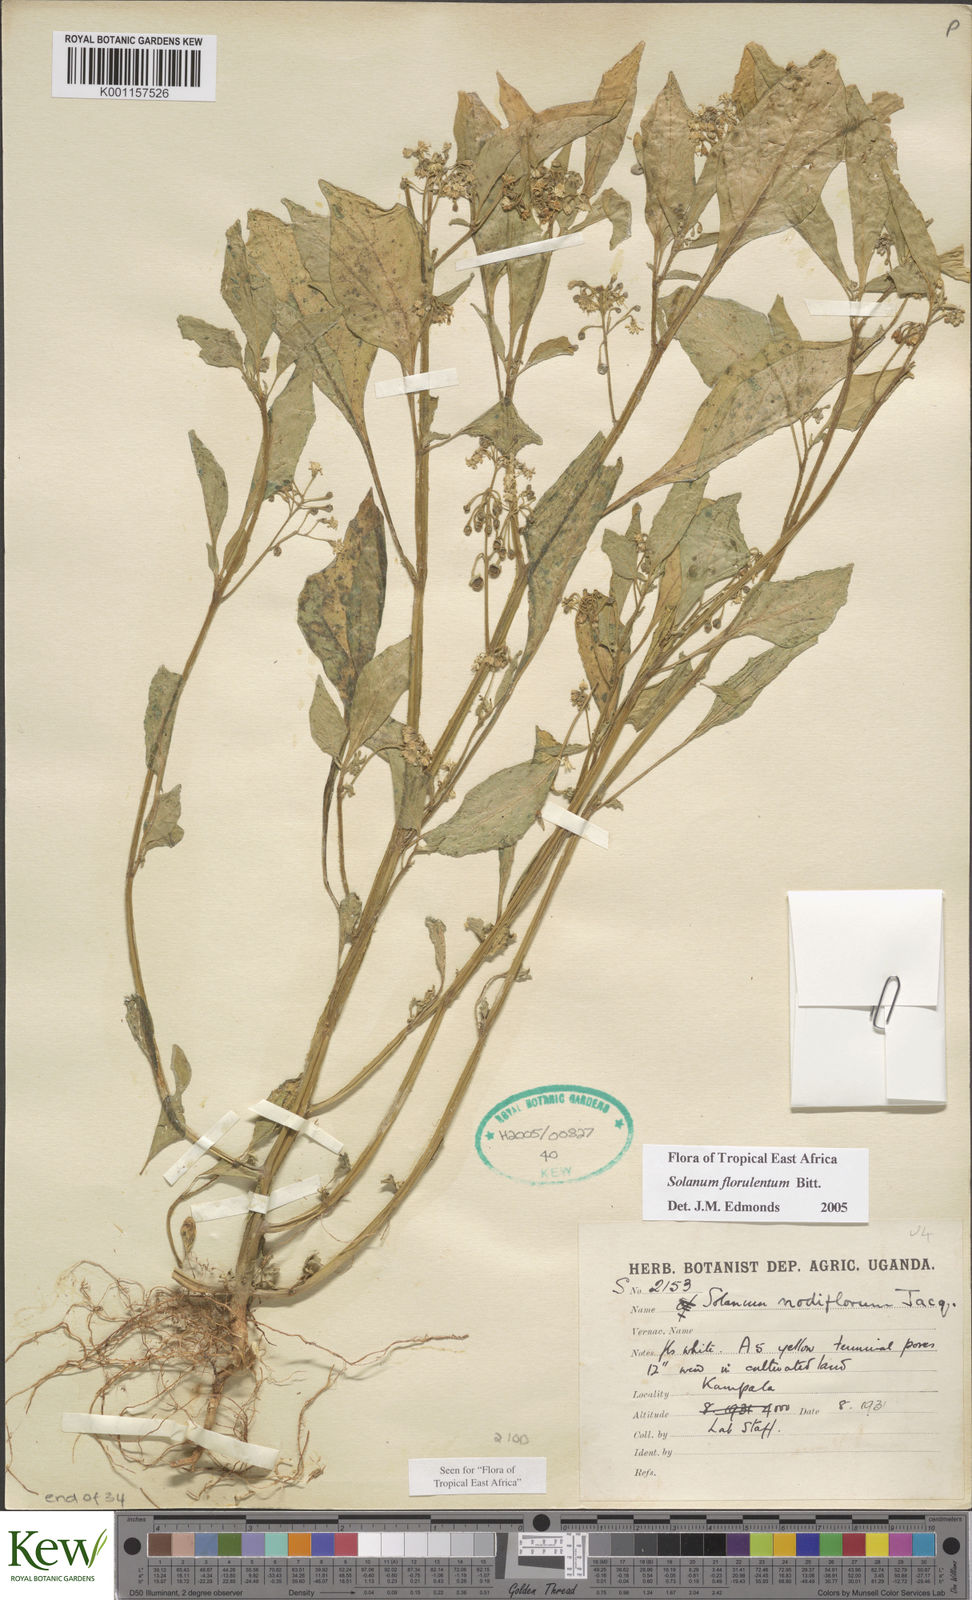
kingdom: Plantae
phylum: Tracheophyta
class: Magnoliopsida
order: Solanales
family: Solanaceae
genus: Solanum
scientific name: Solanum tarderemotum
